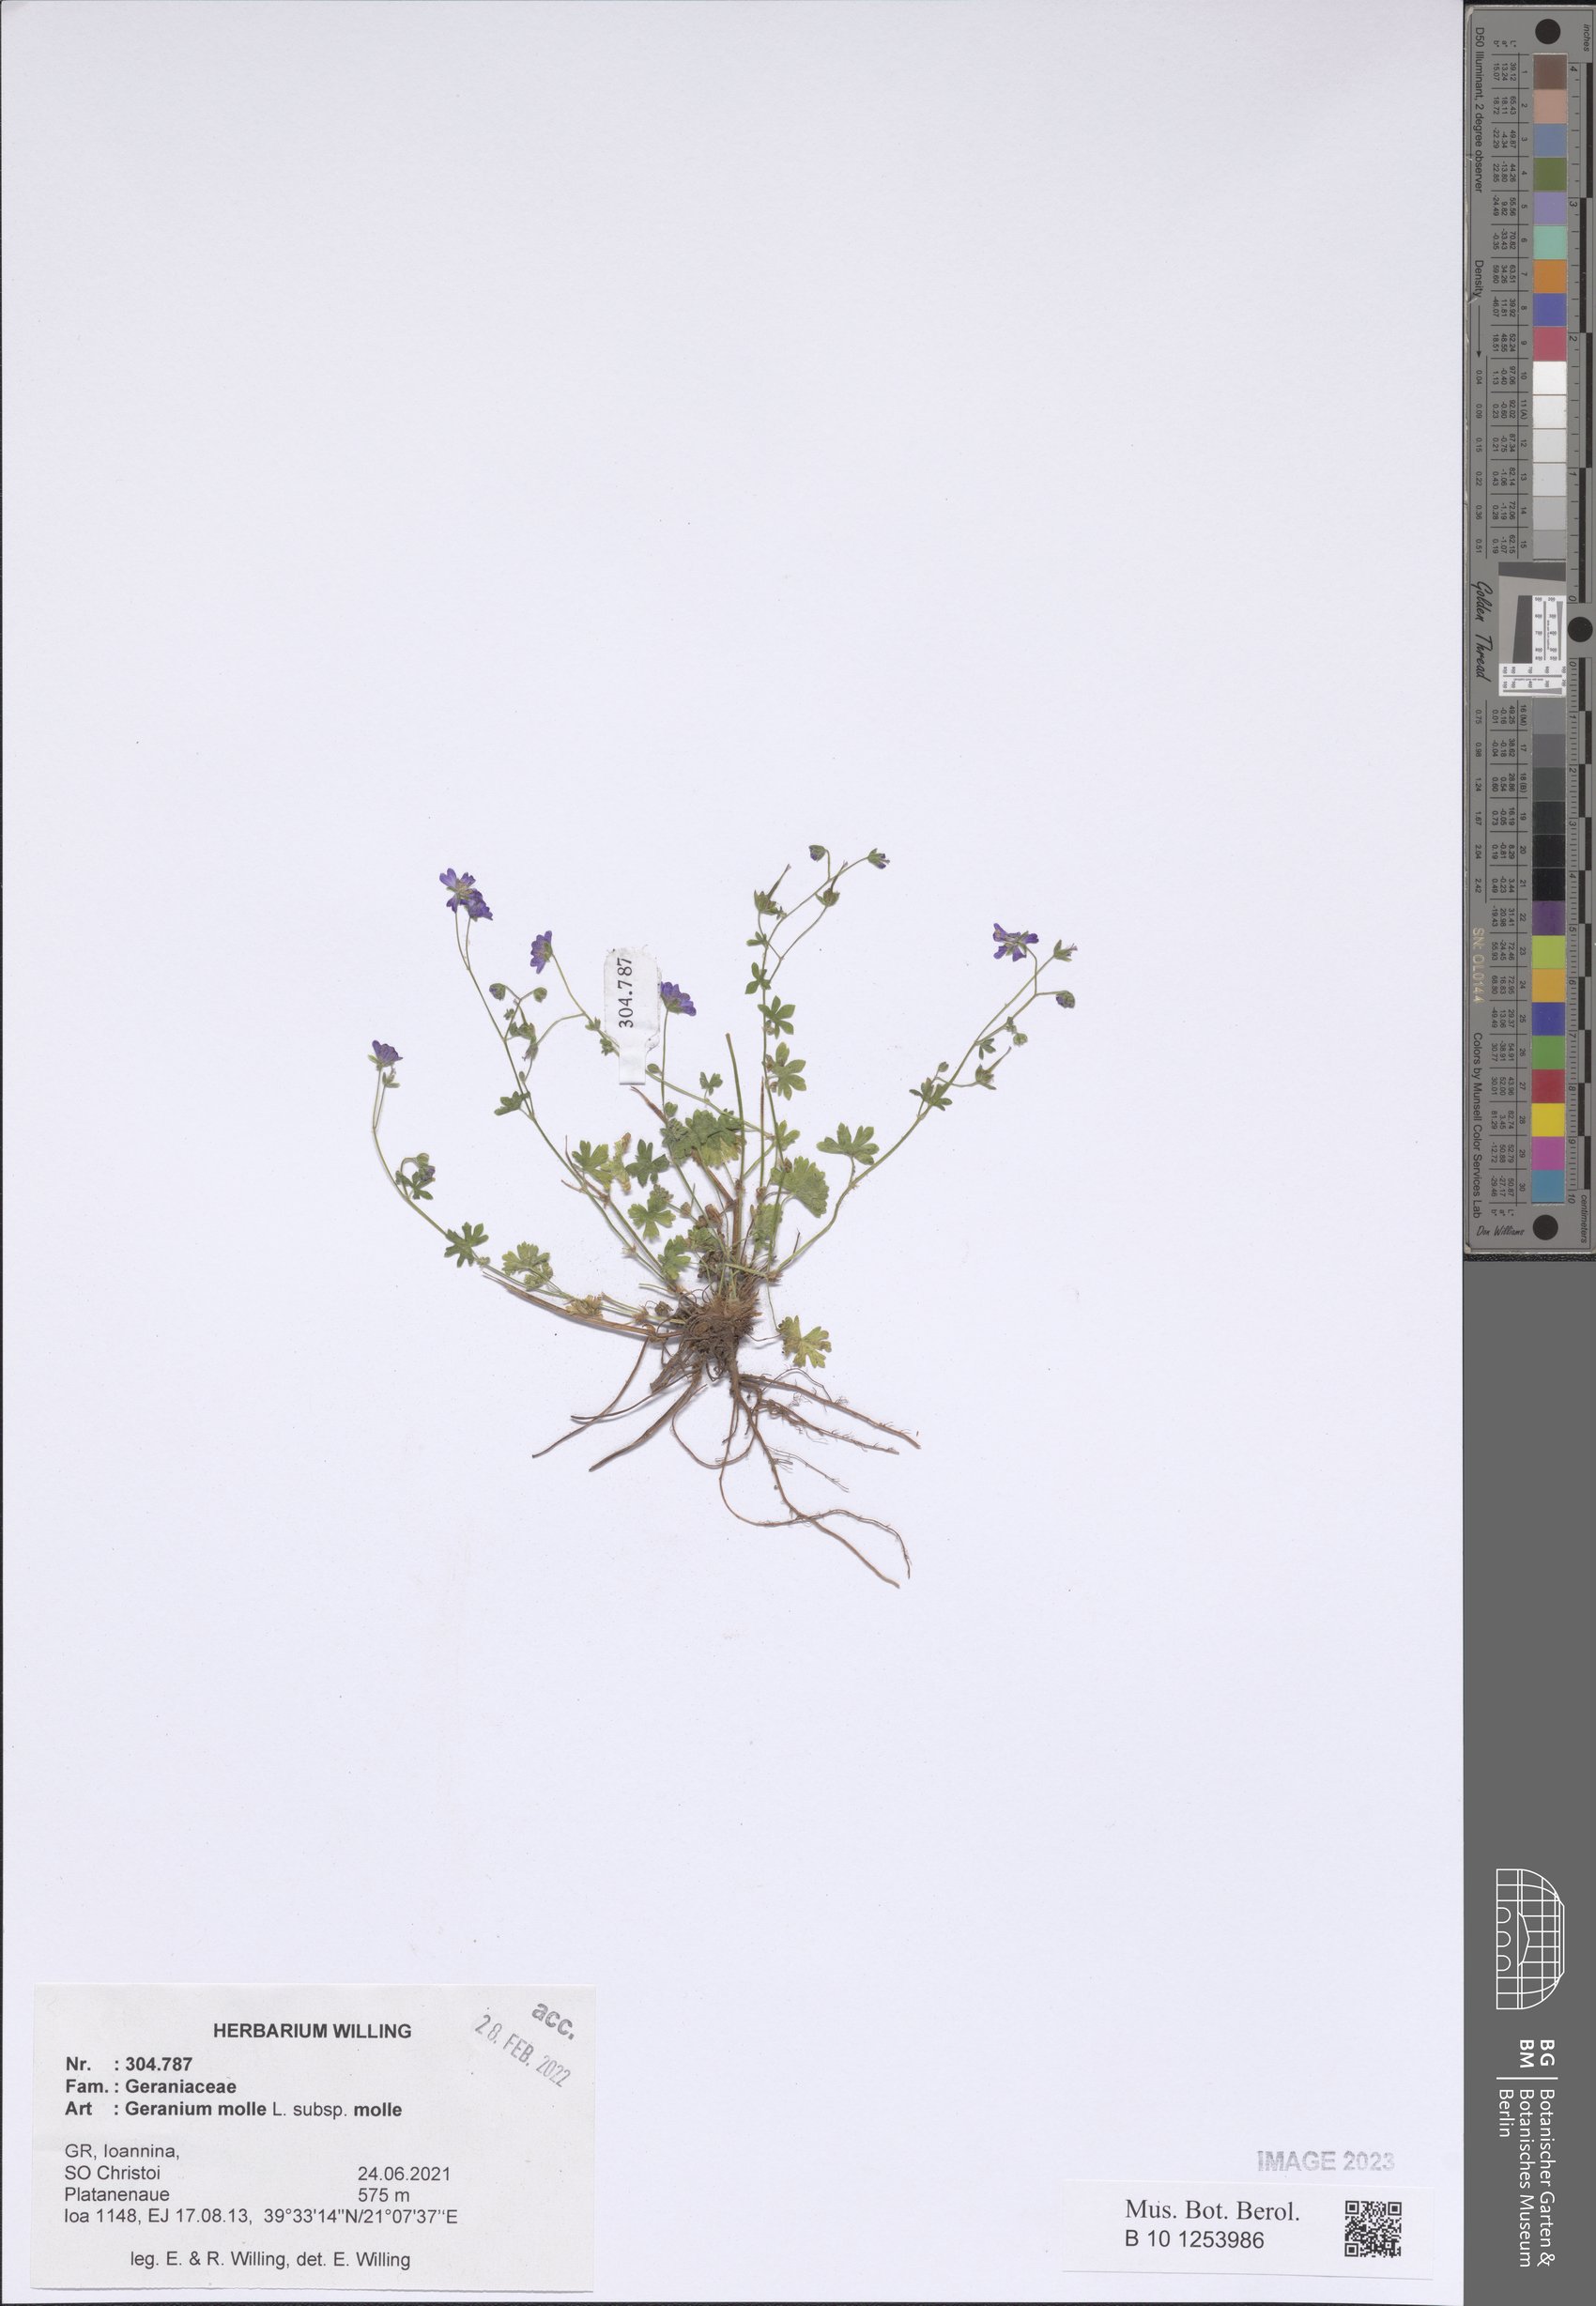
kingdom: Plantae
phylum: Tracheophyta
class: Magnoliopsida
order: Geraniales
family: Geraniaceae
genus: Geranium
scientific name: Geranium molle
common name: Dove's-foot crane's-bill
